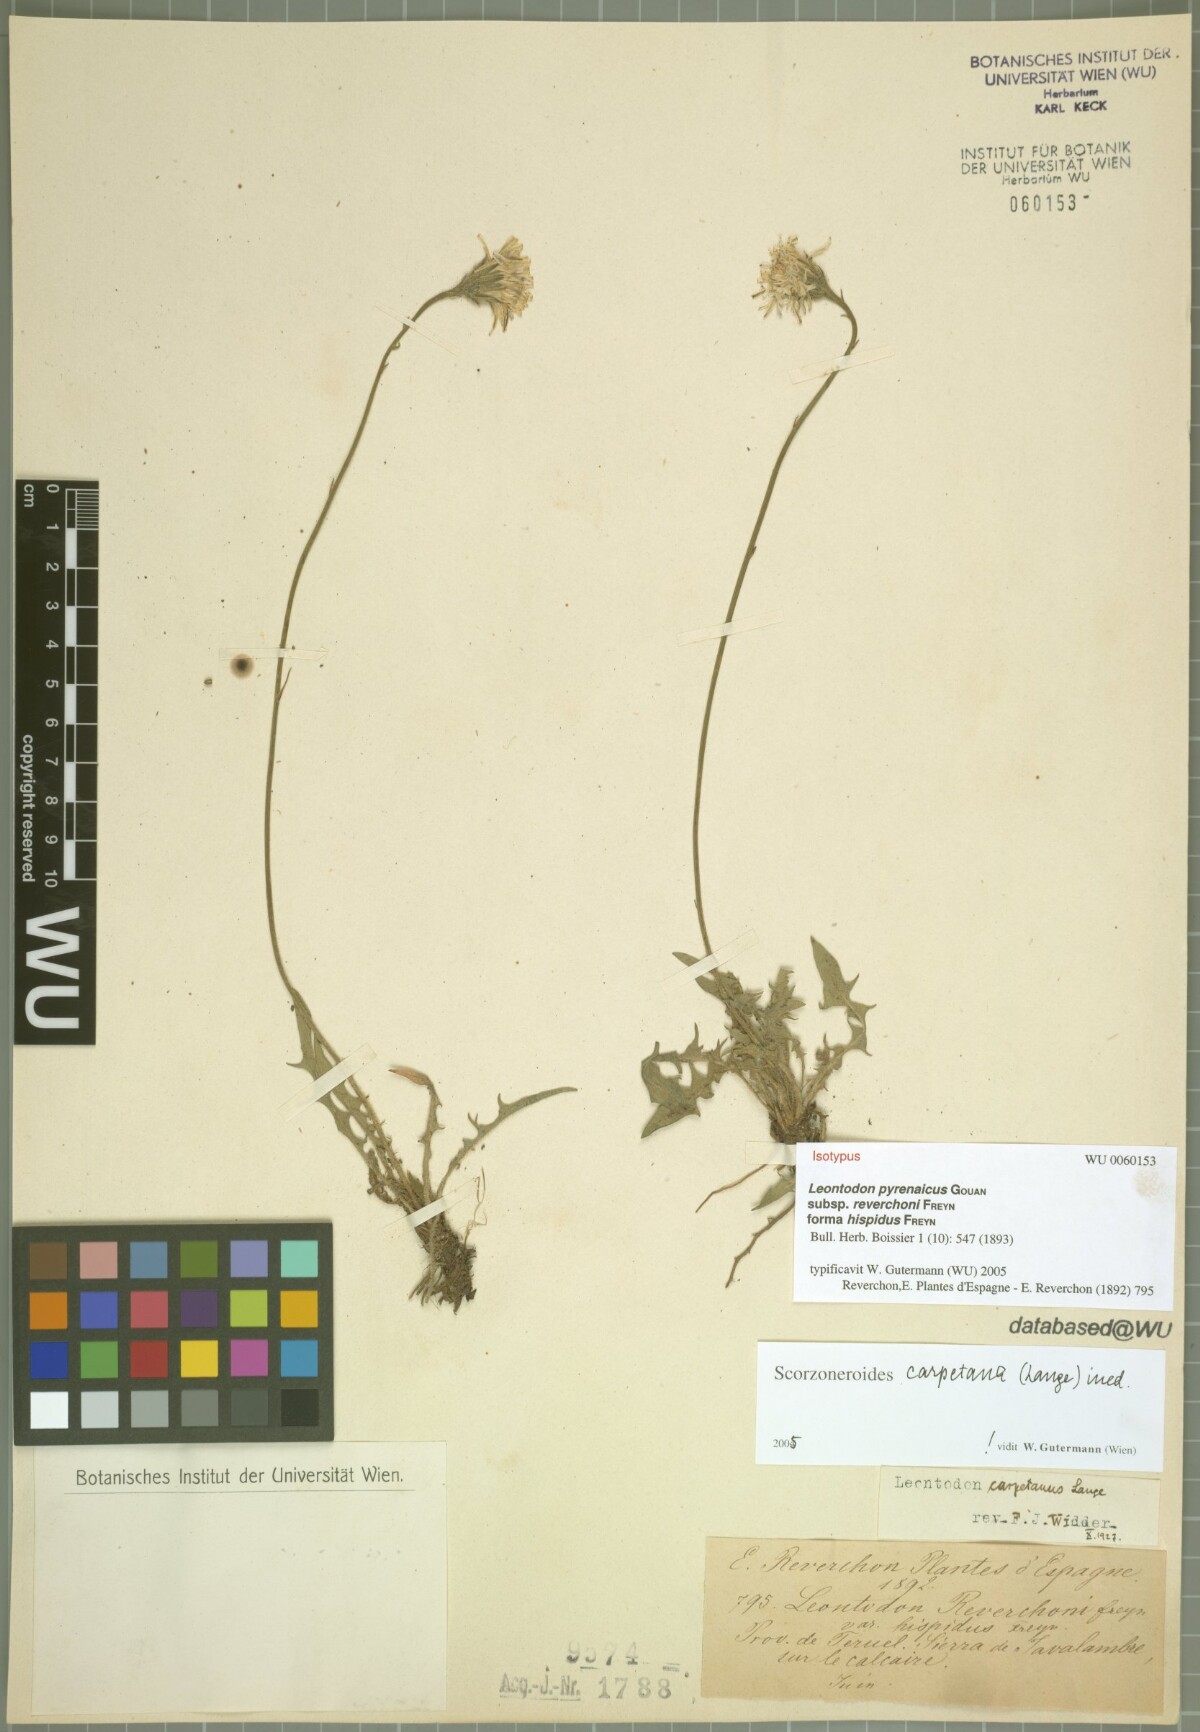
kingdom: Plantae
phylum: Tracheophyta
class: Magnoliopsida
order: Asterales
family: Asteraceae
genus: Scorzoneroides
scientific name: Scorzoneroides pyrenaica
